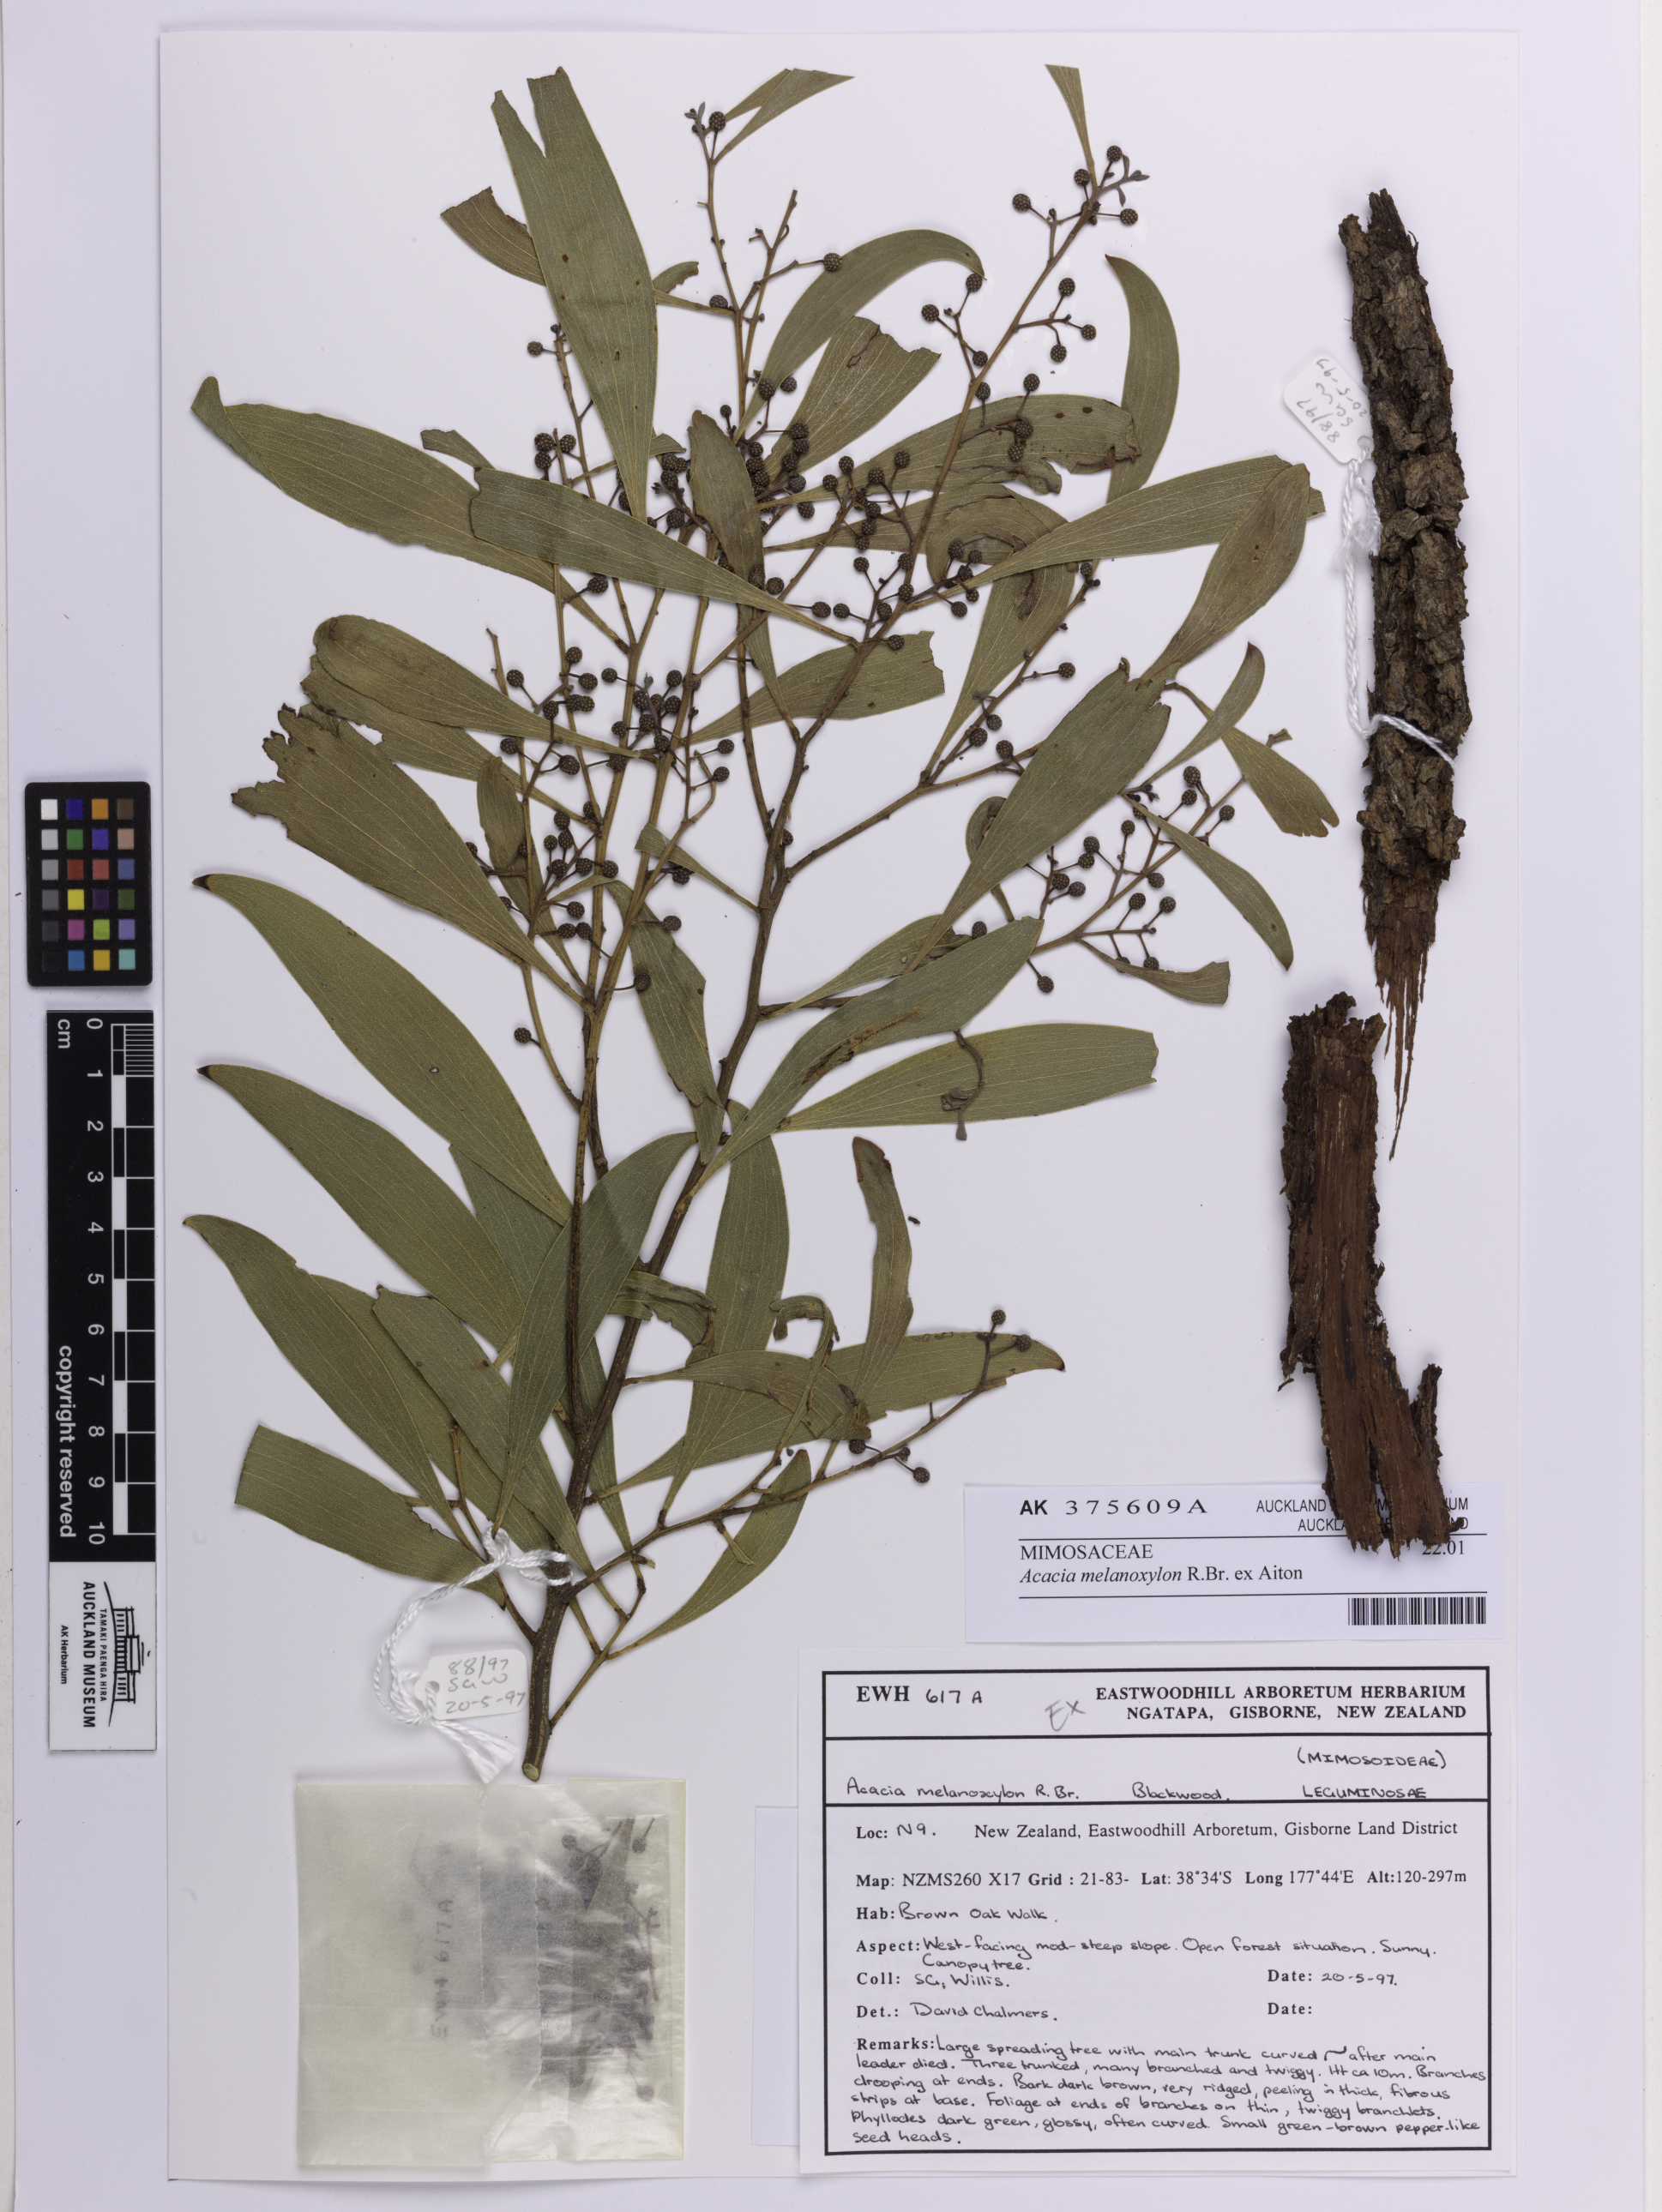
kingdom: Plantae
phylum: Tracheophyta
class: Magnoliopsida
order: Fabales
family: Fabaceae
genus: Acacia
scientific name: Acacia melanoxylon
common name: Blackwood
